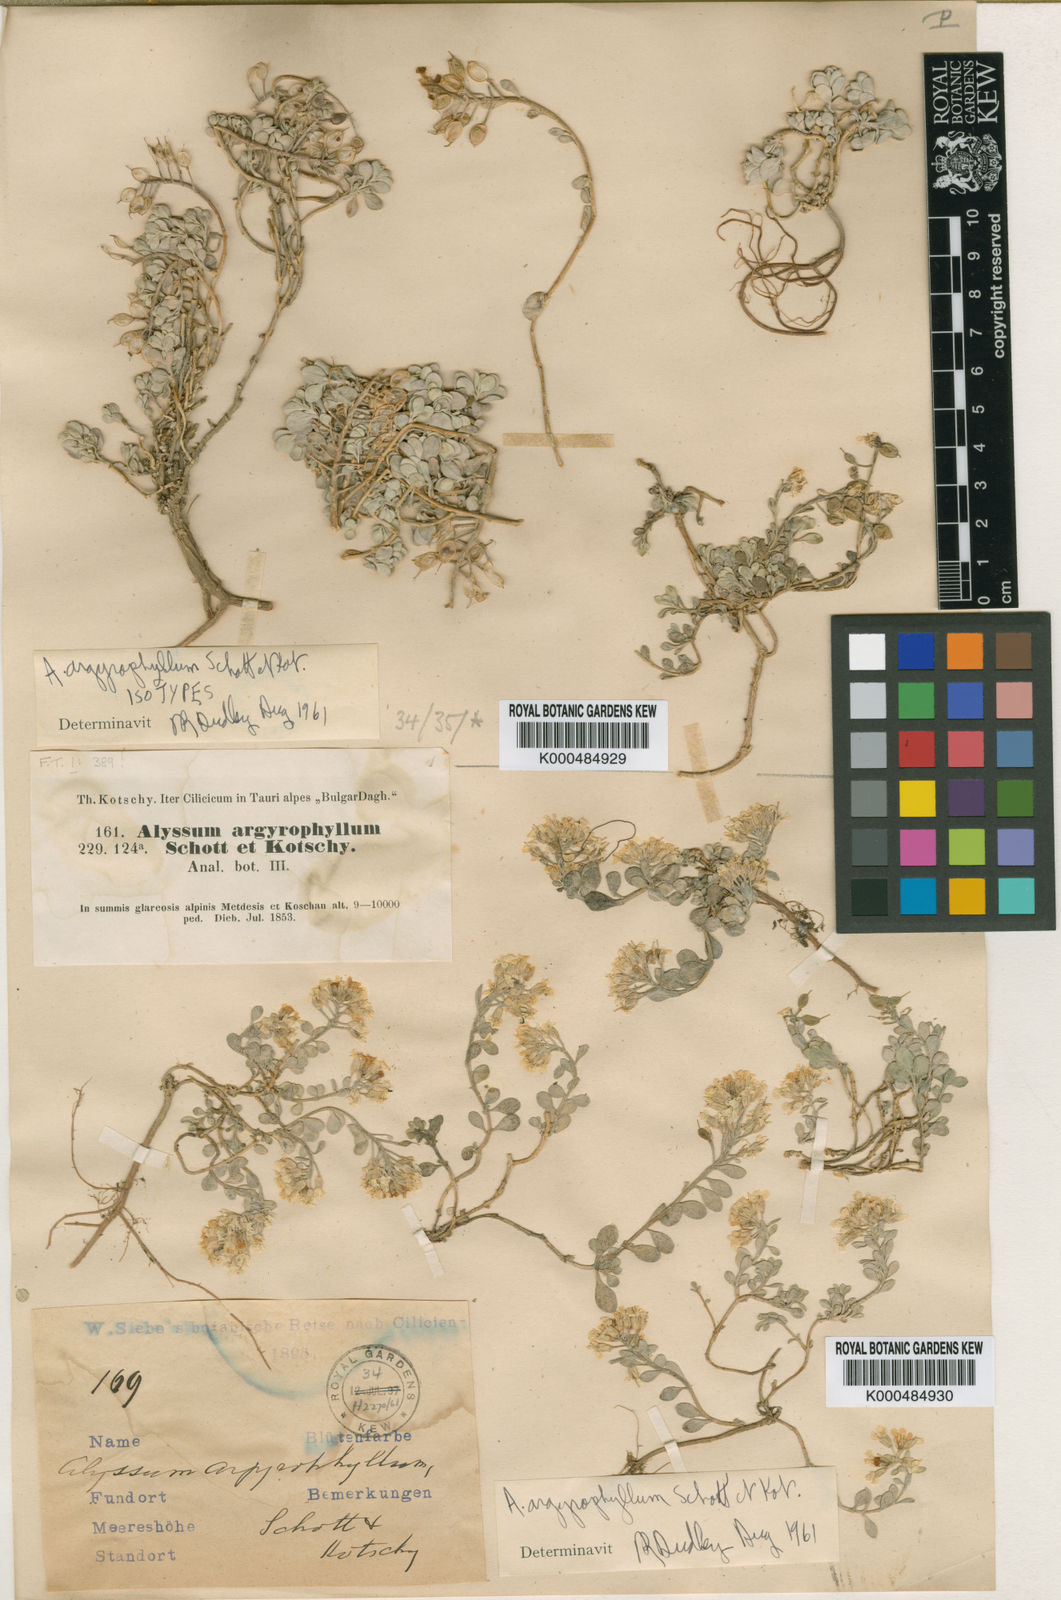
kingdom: Plantae
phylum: Tracheophyta
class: Magnoliopsida
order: Brassicales
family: Brassicaceae
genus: Alyssum
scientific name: Alyssum argyrophyllum
